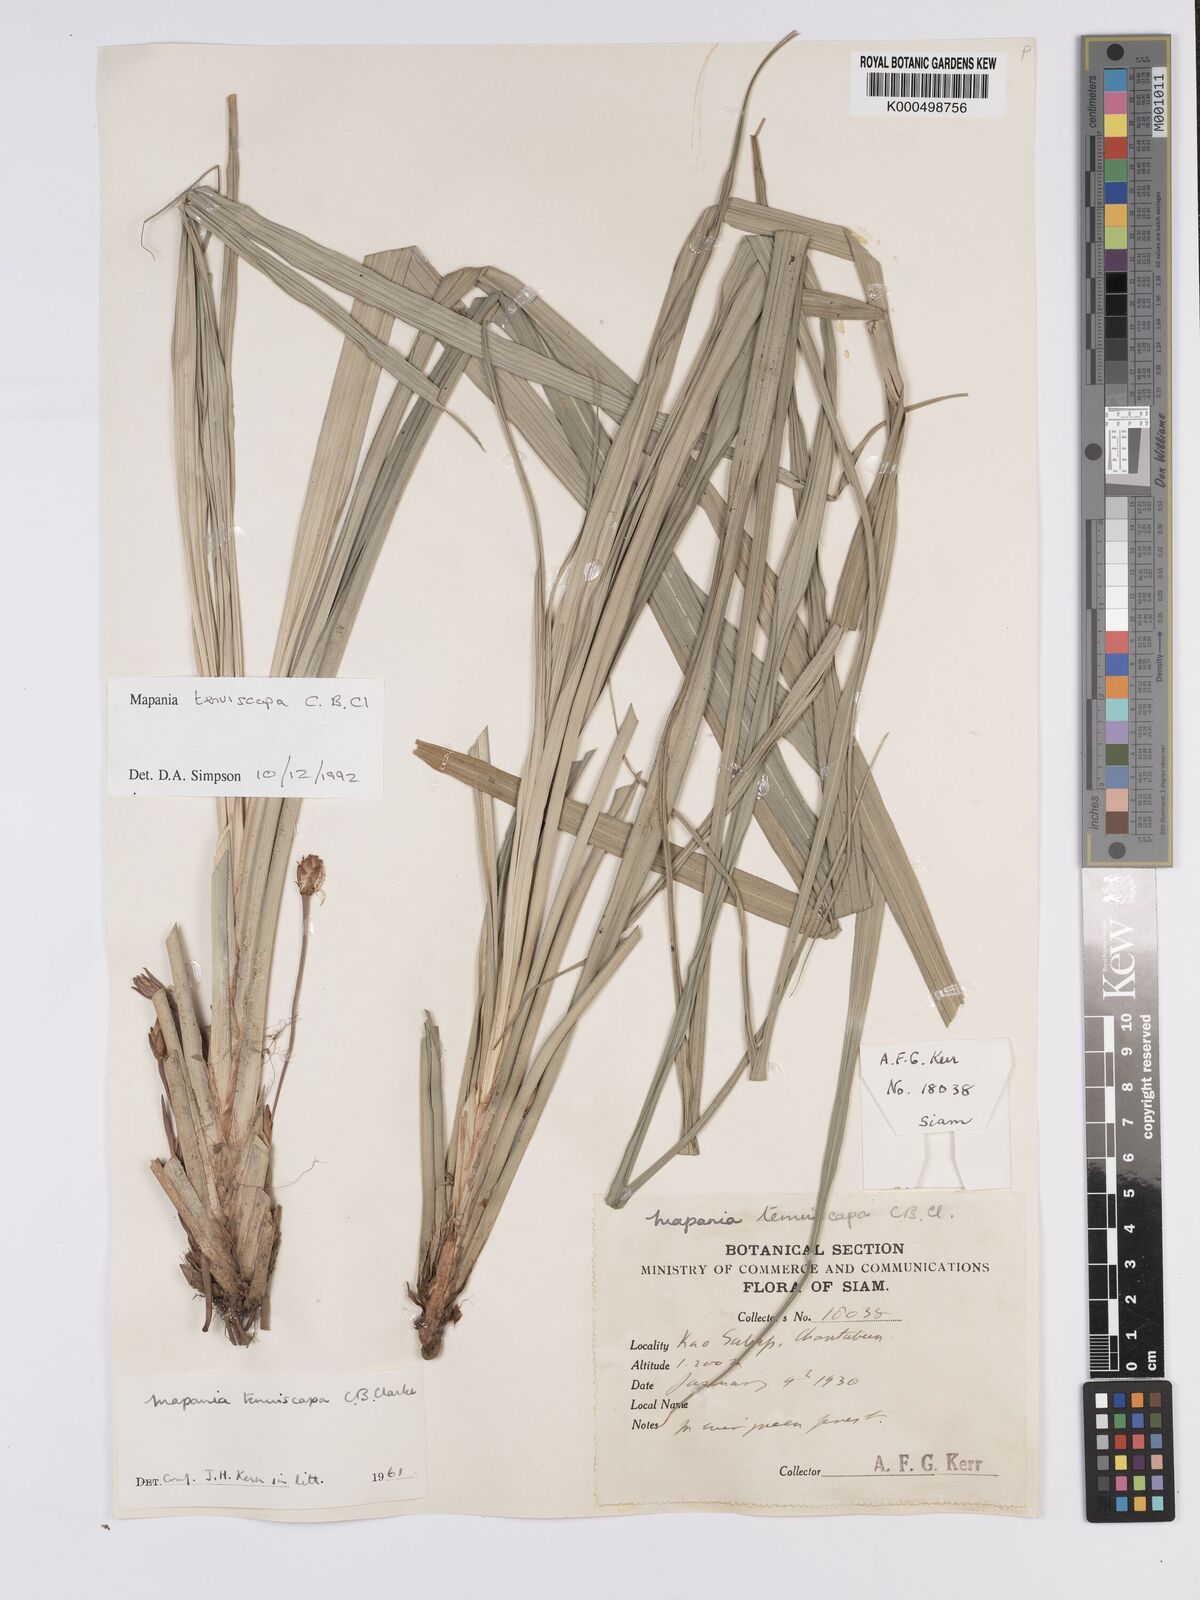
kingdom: Plantae
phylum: Tracheophyta
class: Liliopsida
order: Poales
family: Cyperaceae
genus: Mapania
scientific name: Mapania tenuiscapa
